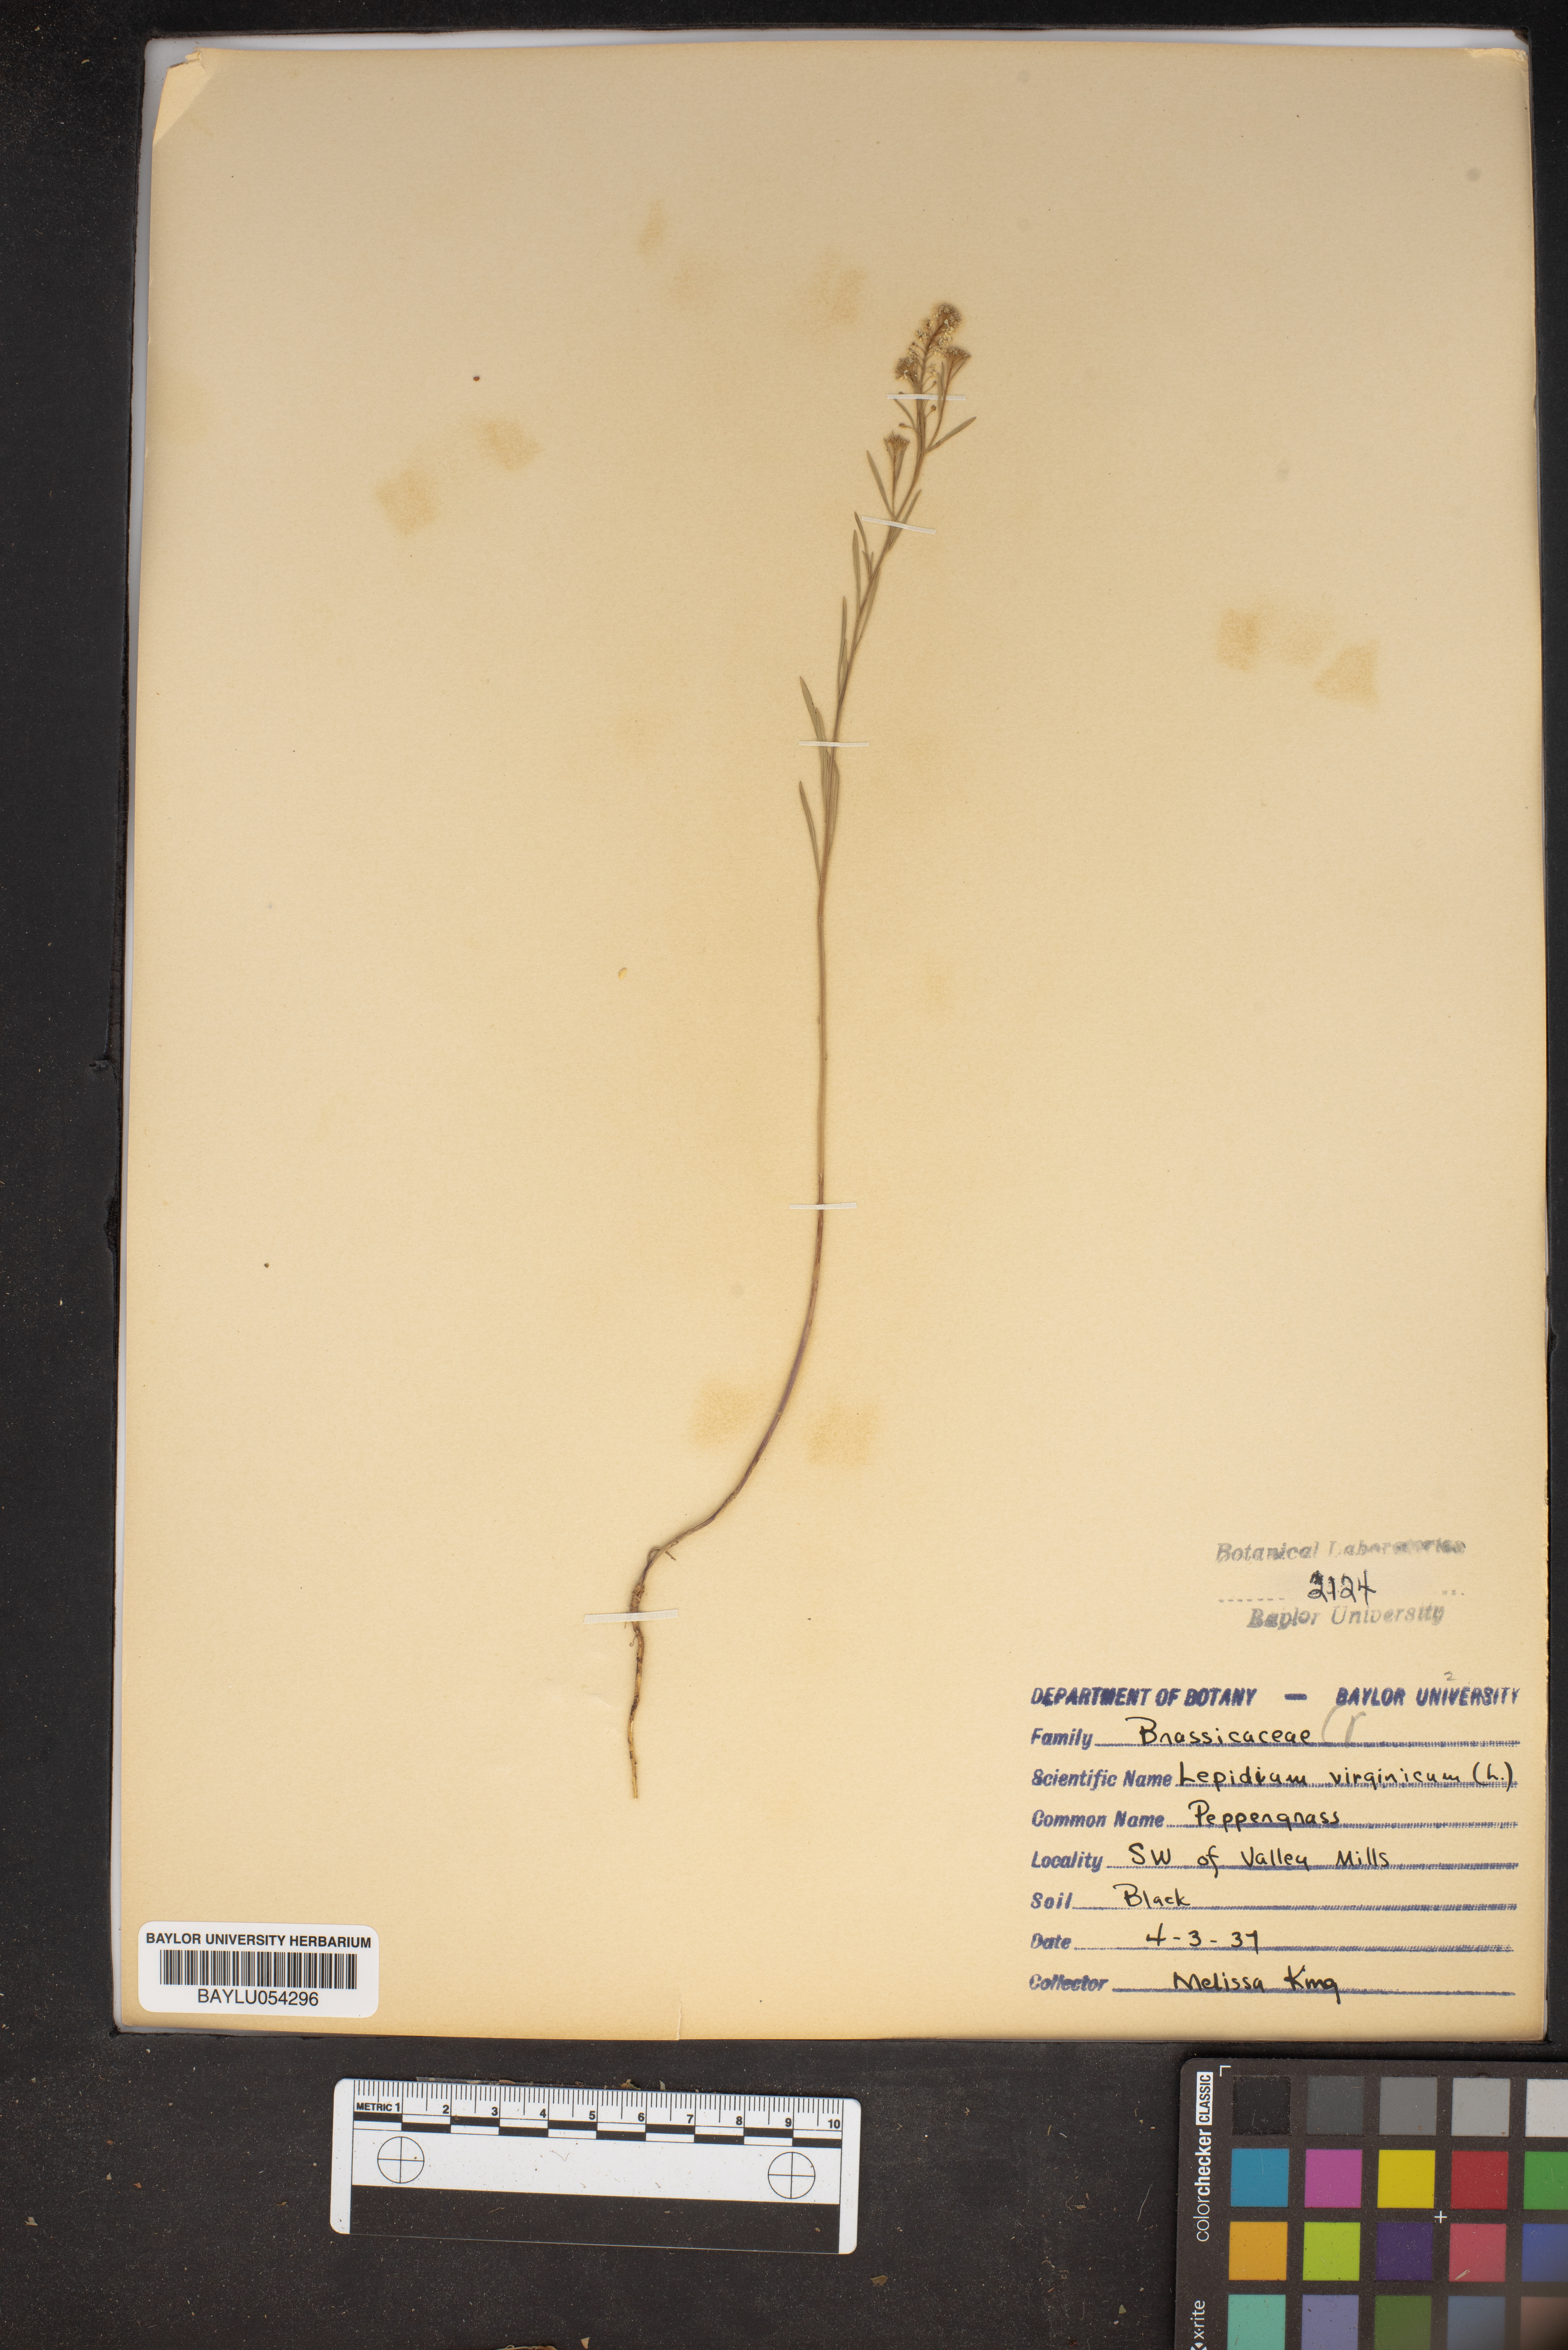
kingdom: Plantae
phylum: Tracheophyta
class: Magnoliopsida
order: Brassicales
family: Brassicaceae
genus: Lepidium
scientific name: Lepidium virginicum
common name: Least pepperwort
